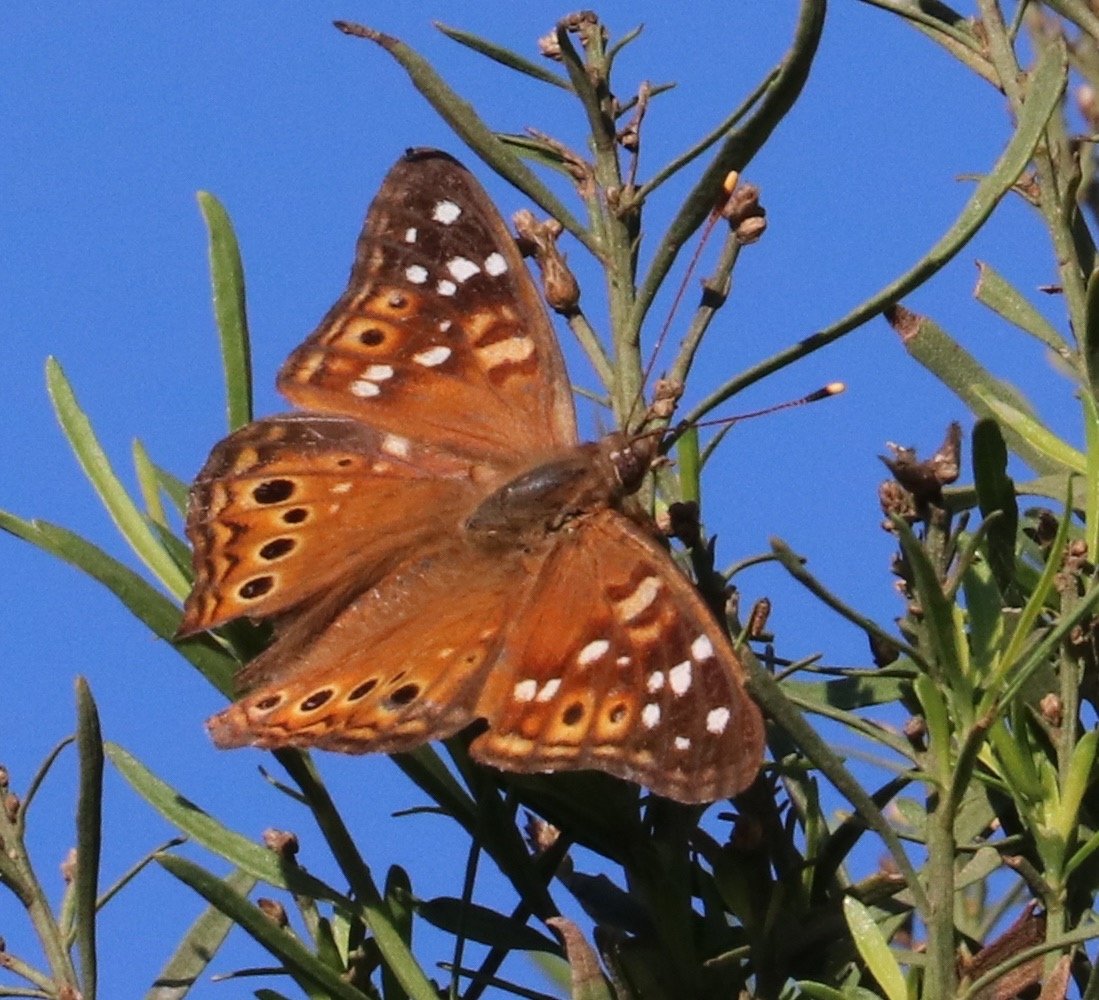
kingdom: Animalia
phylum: Arthropoda
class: Insecta
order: Lepidoptera
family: Nymphalidae
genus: Asterocampa
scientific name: Asterocampa leilia
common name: Empress Leilia
